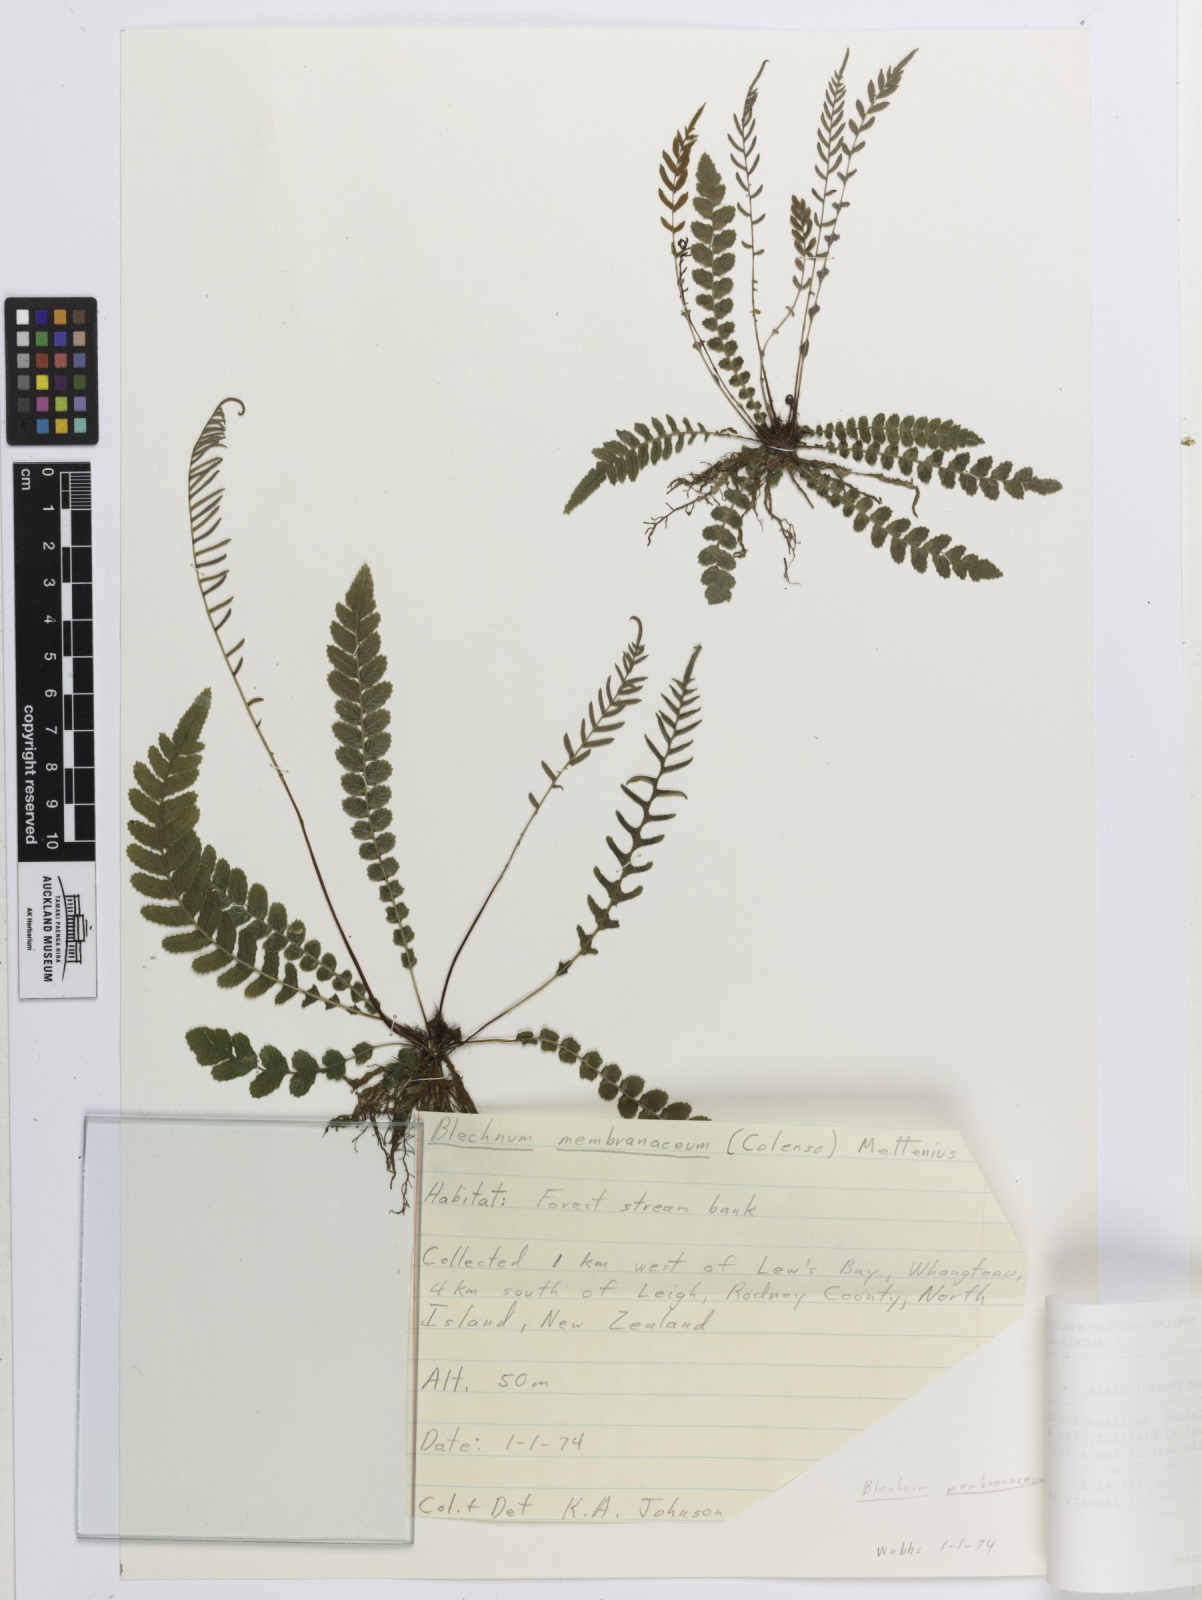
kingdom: Plantae
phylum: Tracheophyta
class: Polypodiopsida
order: Polypodiales
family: Blechnaceae
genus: Austroblechnum
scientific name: Austroblechnum membranaceum
